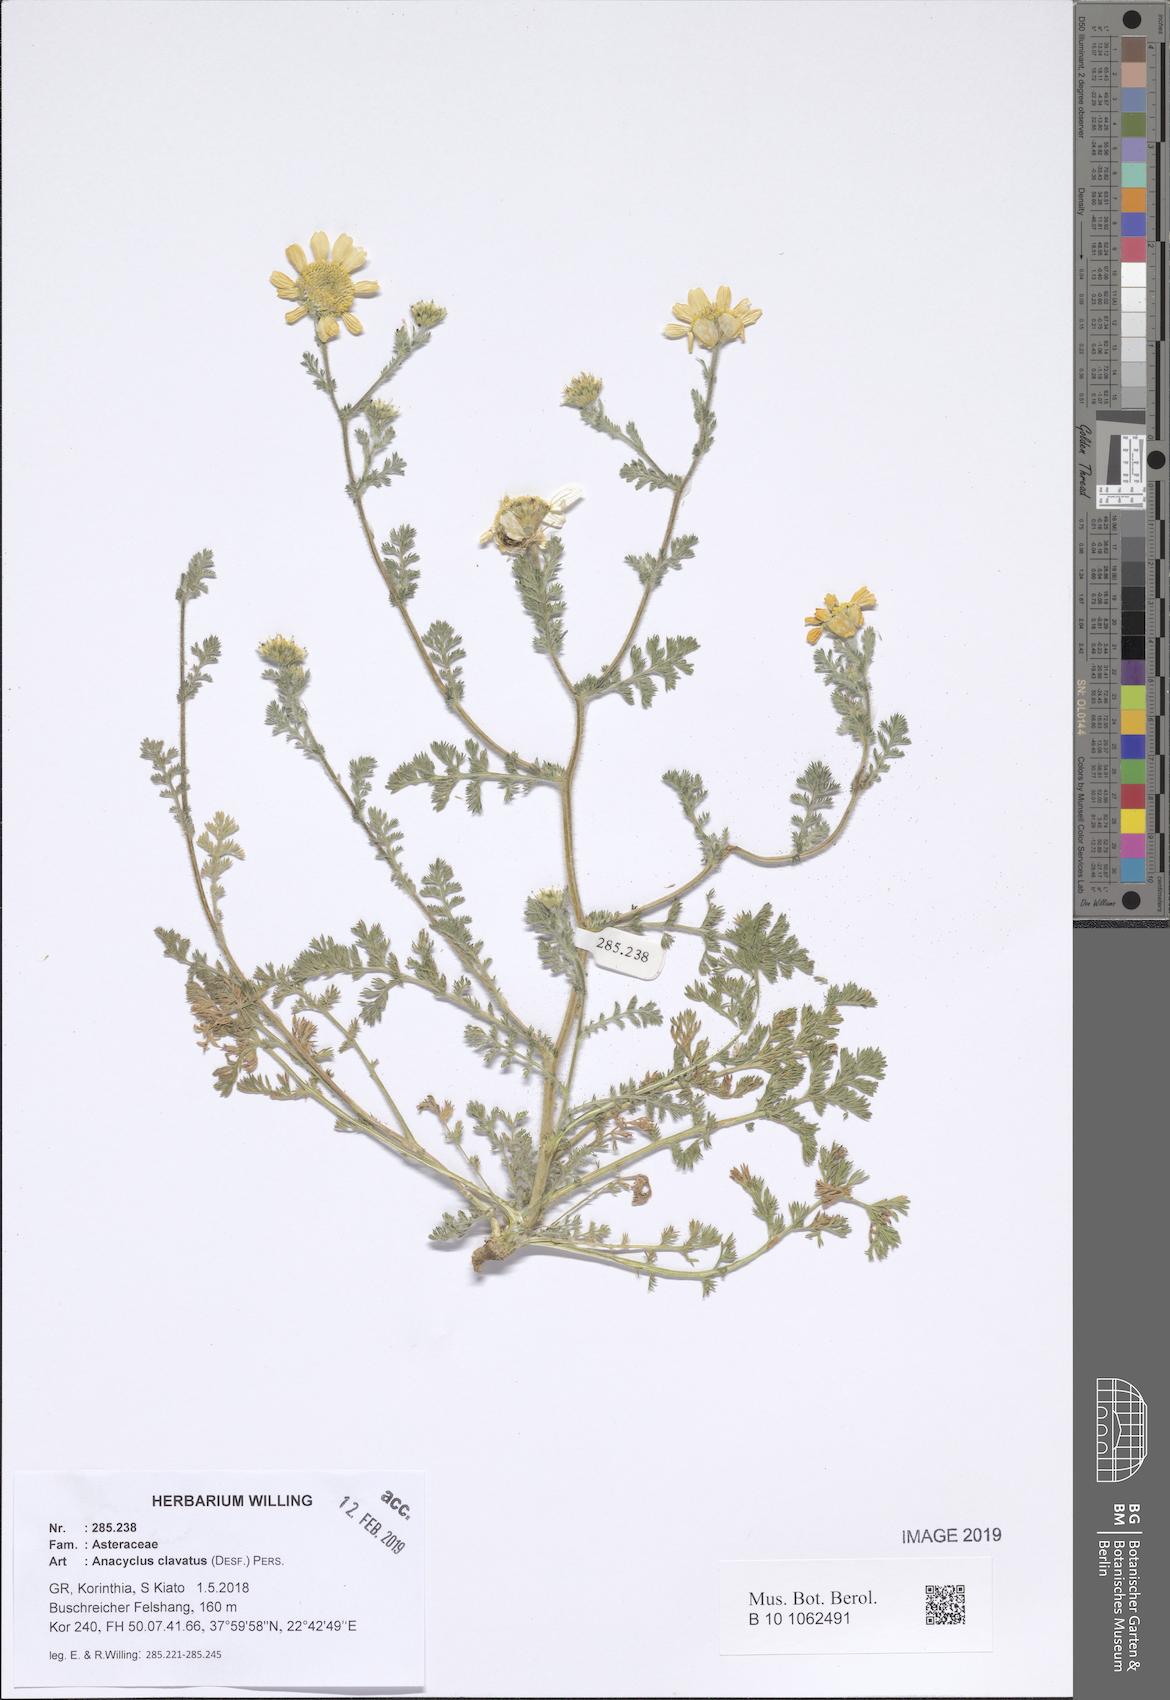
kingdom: Plantae
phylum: Tracheophyta
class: Magnoliopsida
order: Asterales
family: Asteraceae
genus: Anacyclus
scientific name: Anacyclus clavatus
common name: Whitebuttons
